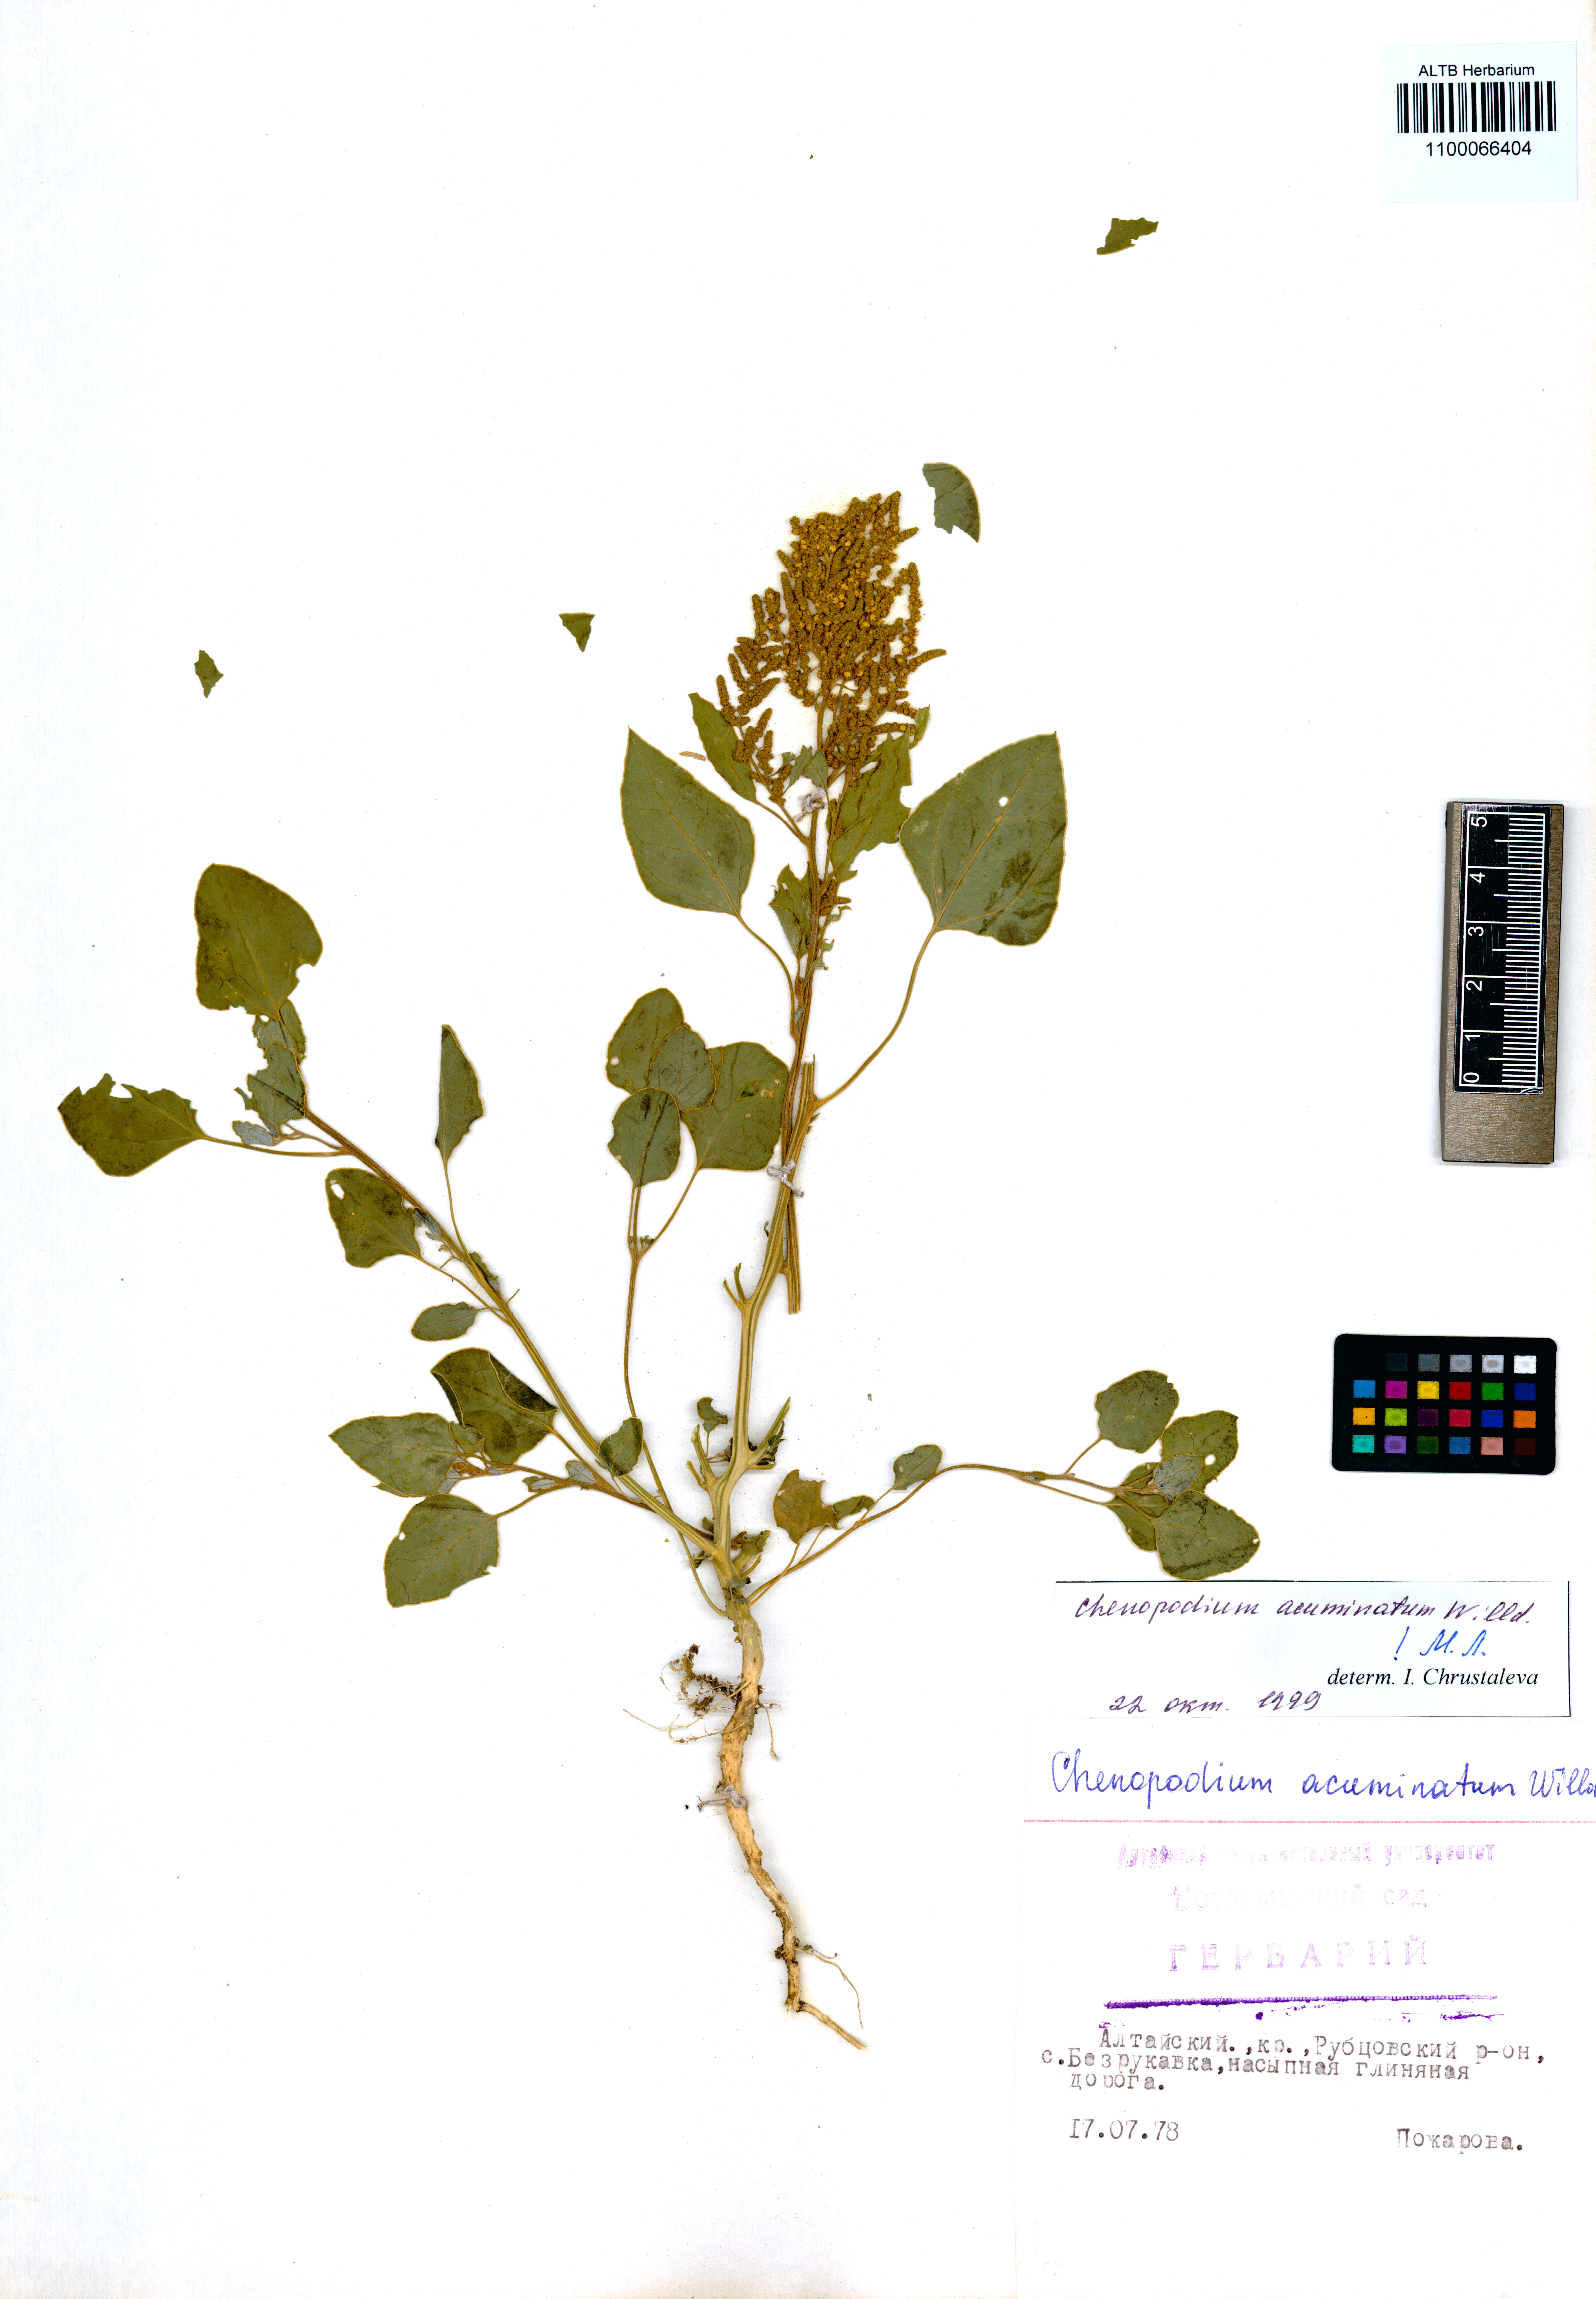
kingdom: Plantae
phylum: Tracheophyta
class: Magnoliopsida
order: Caryophyllales
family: Amaranthaceae
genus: Chenopodium
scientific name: Chenopodium acuminatum
